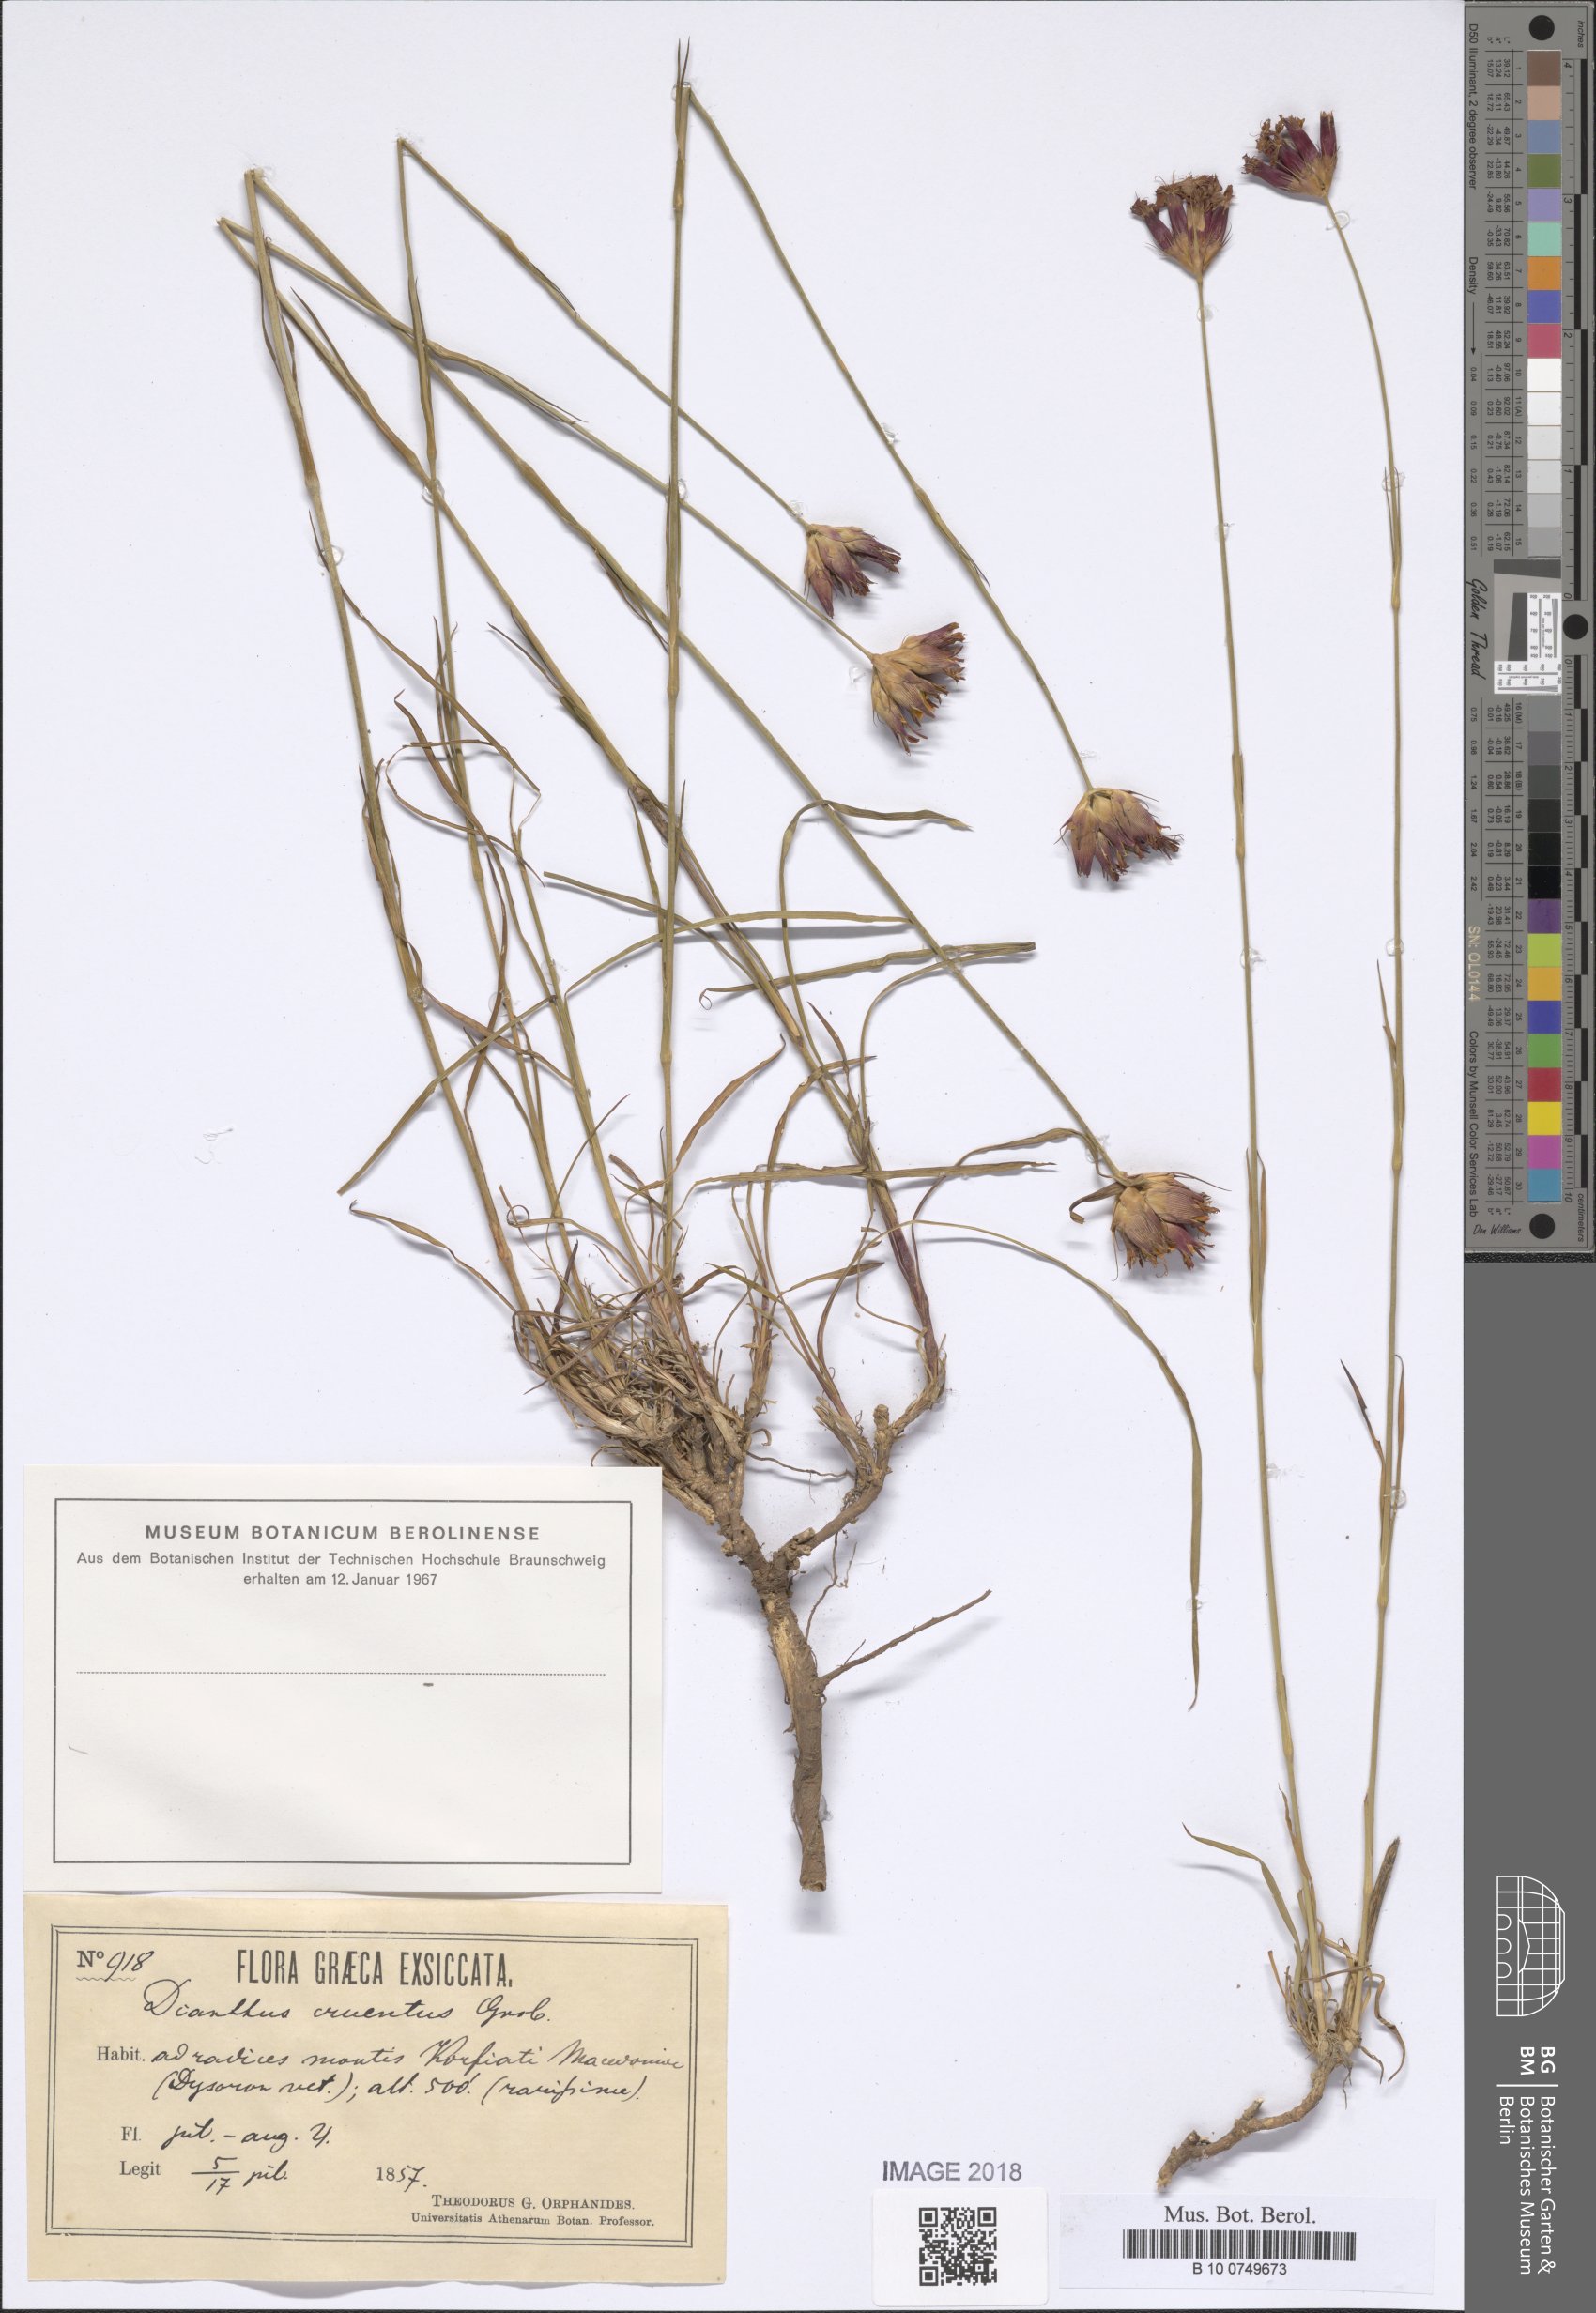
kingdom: Plantae
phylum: Tracheophyta
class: Magnoliopsida
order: Caryophyllales
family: Caryophyllaceae
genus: Dianthus
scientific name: Dianthus cruentus
